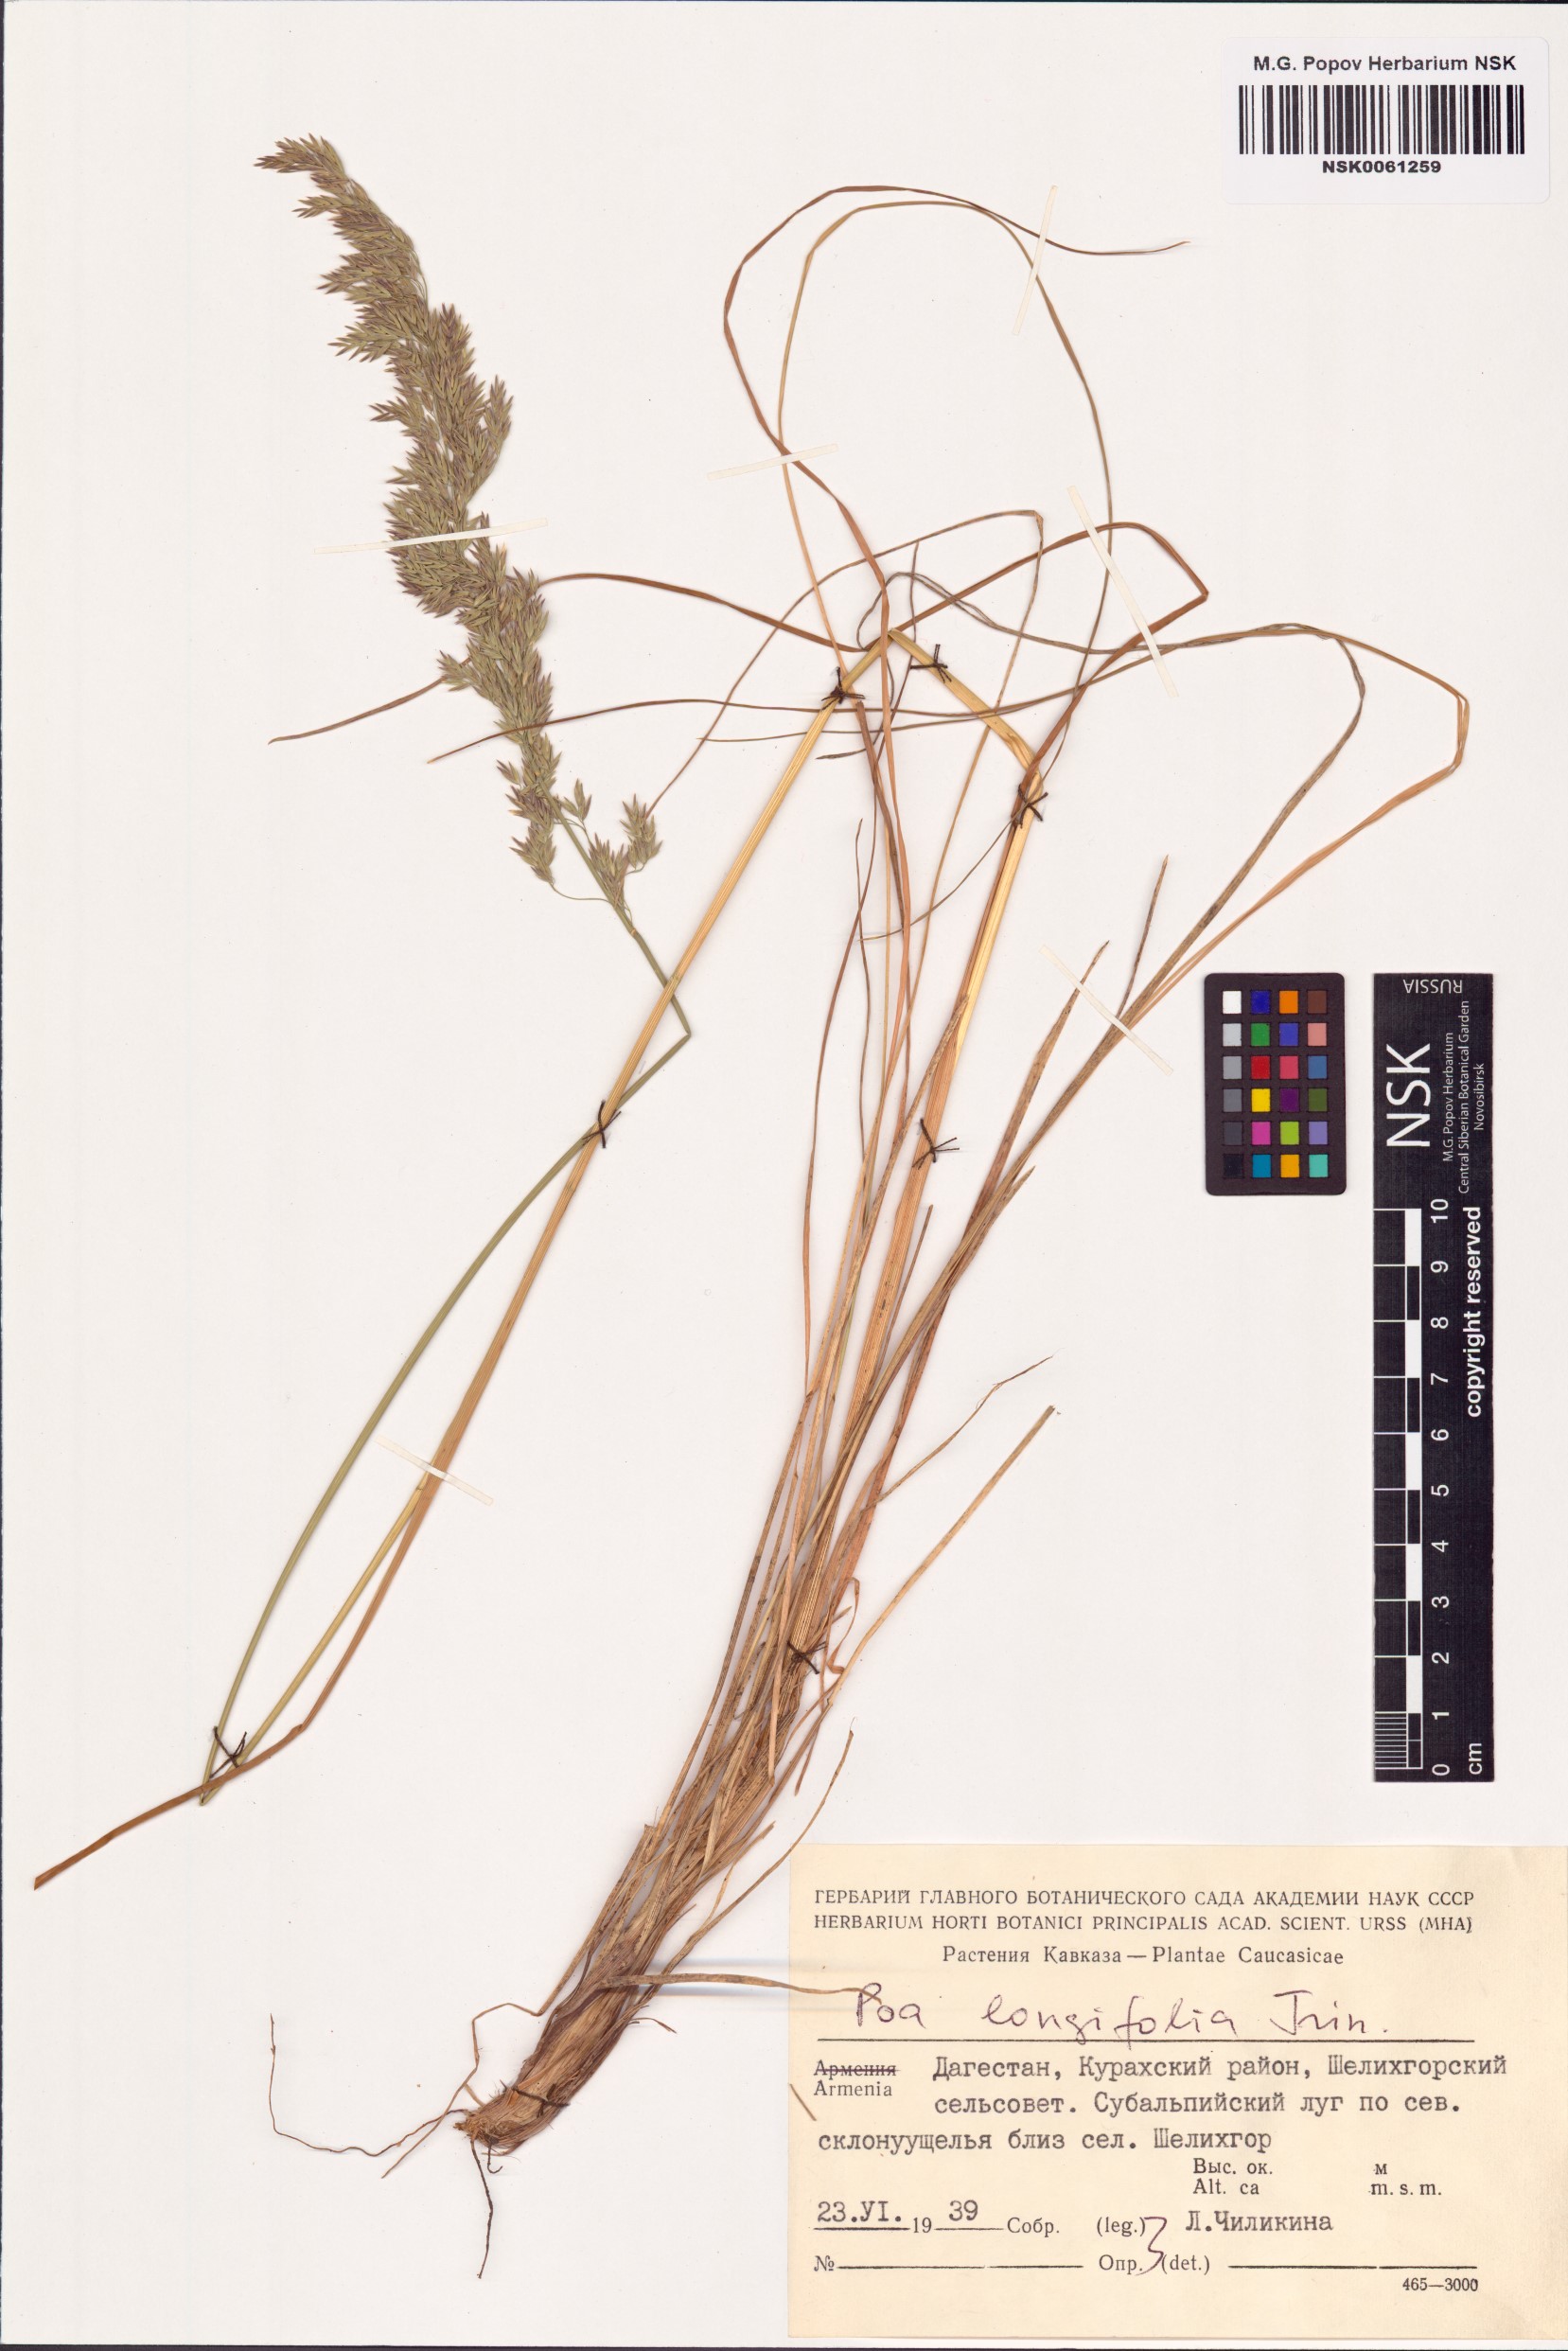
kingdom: Plantae
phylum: Tracheophyta
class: Liliopsida
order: Poales
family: Poaceae
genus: Poa
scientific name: Poa longifolia
